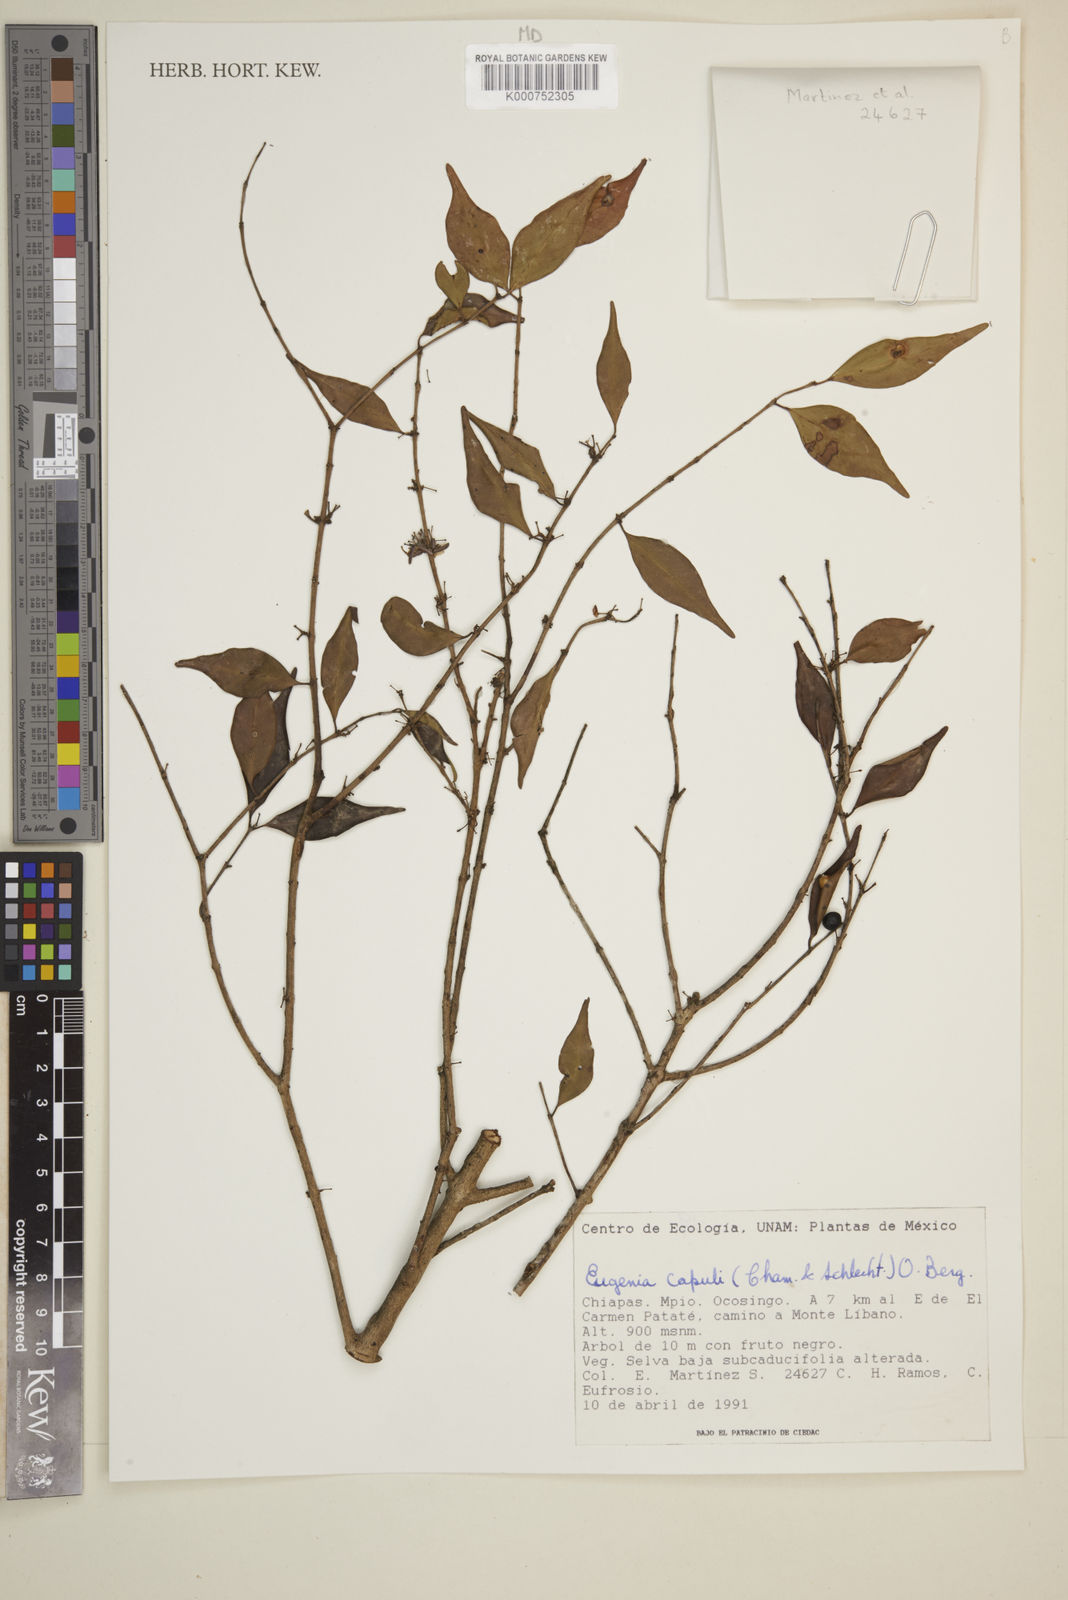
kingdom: Plantae
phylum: Tracheophyta
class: Magnoliopsida
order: Myrtales
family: Myrtaceae
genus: Eugenia
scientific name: Eugenia capuli
